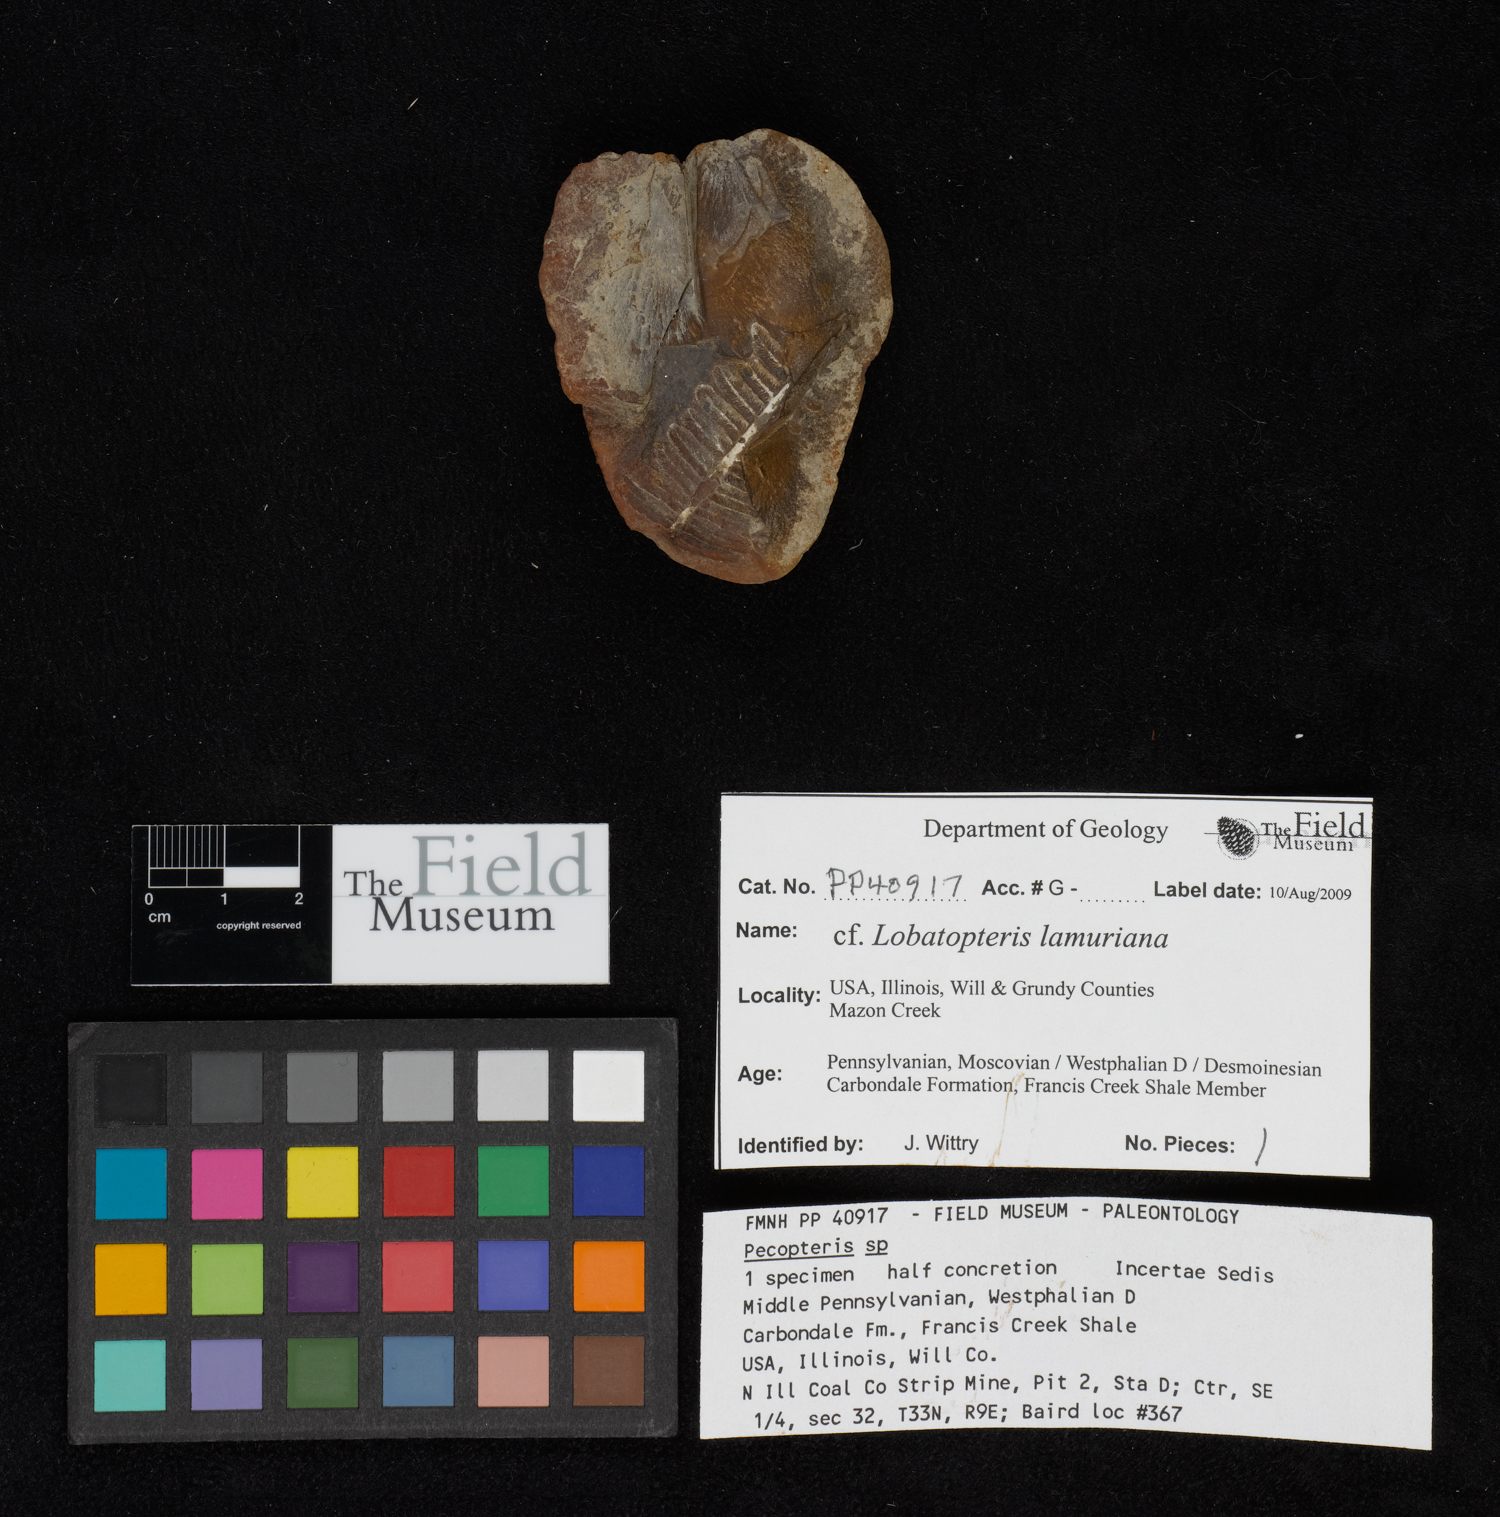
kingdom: Plantae
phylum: Tracheophyta
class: Polypodiopsida
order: Marattiales
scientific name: Marattiales
